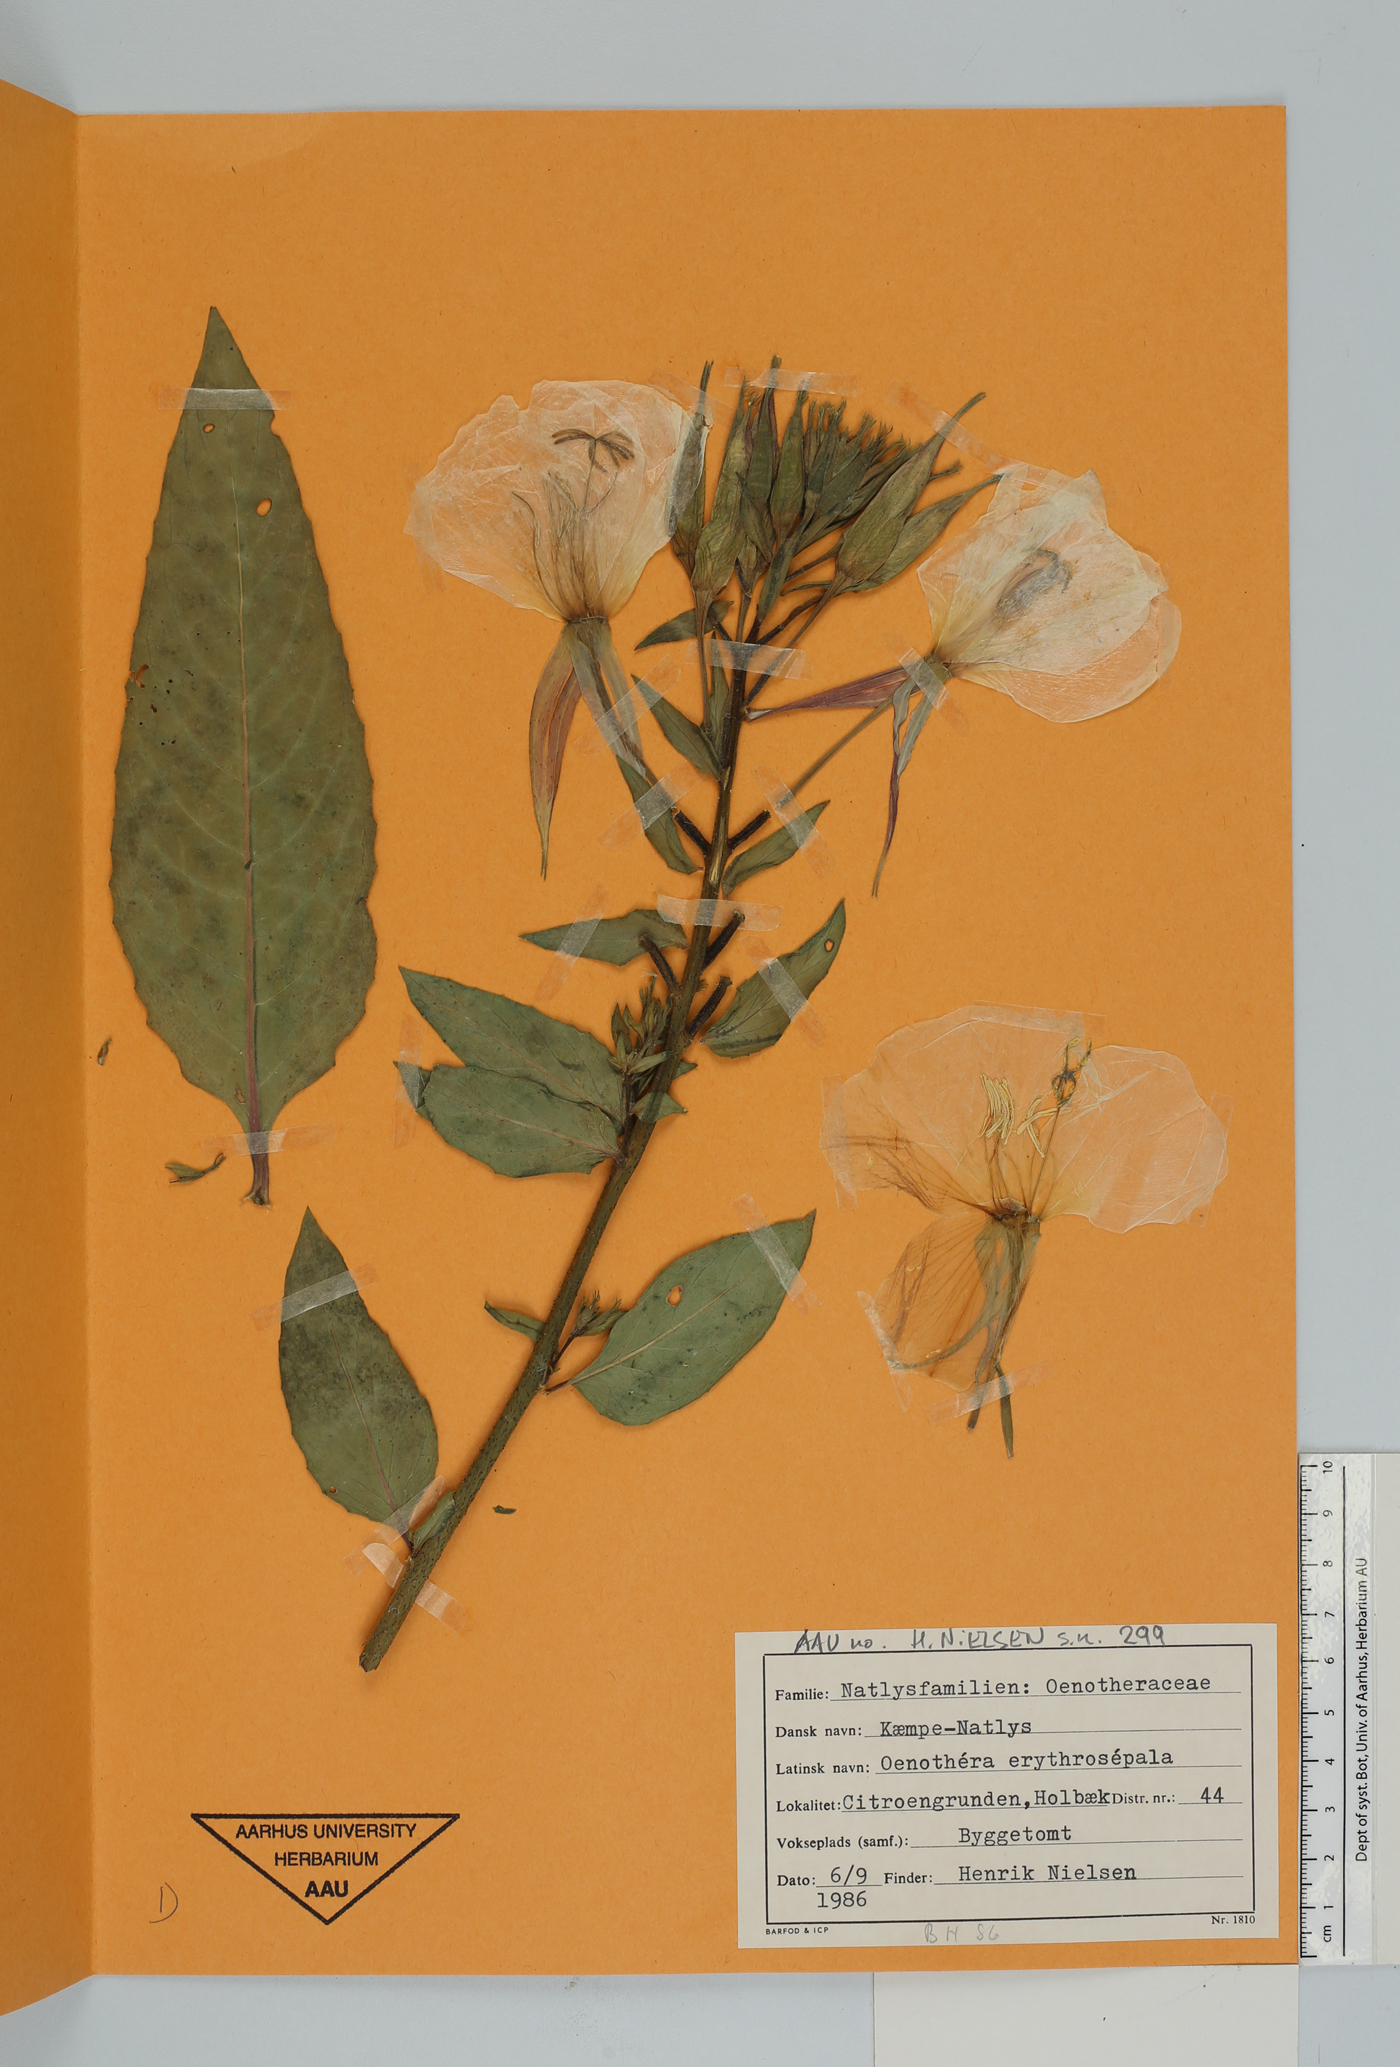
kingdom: Plantae
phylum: Tracheophyta
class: Magnoliopsida
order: Myrtales
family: Onagraceae
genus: Oenothera
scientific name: Oenothera glazioviana
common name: Large-flowered evening-primrose
